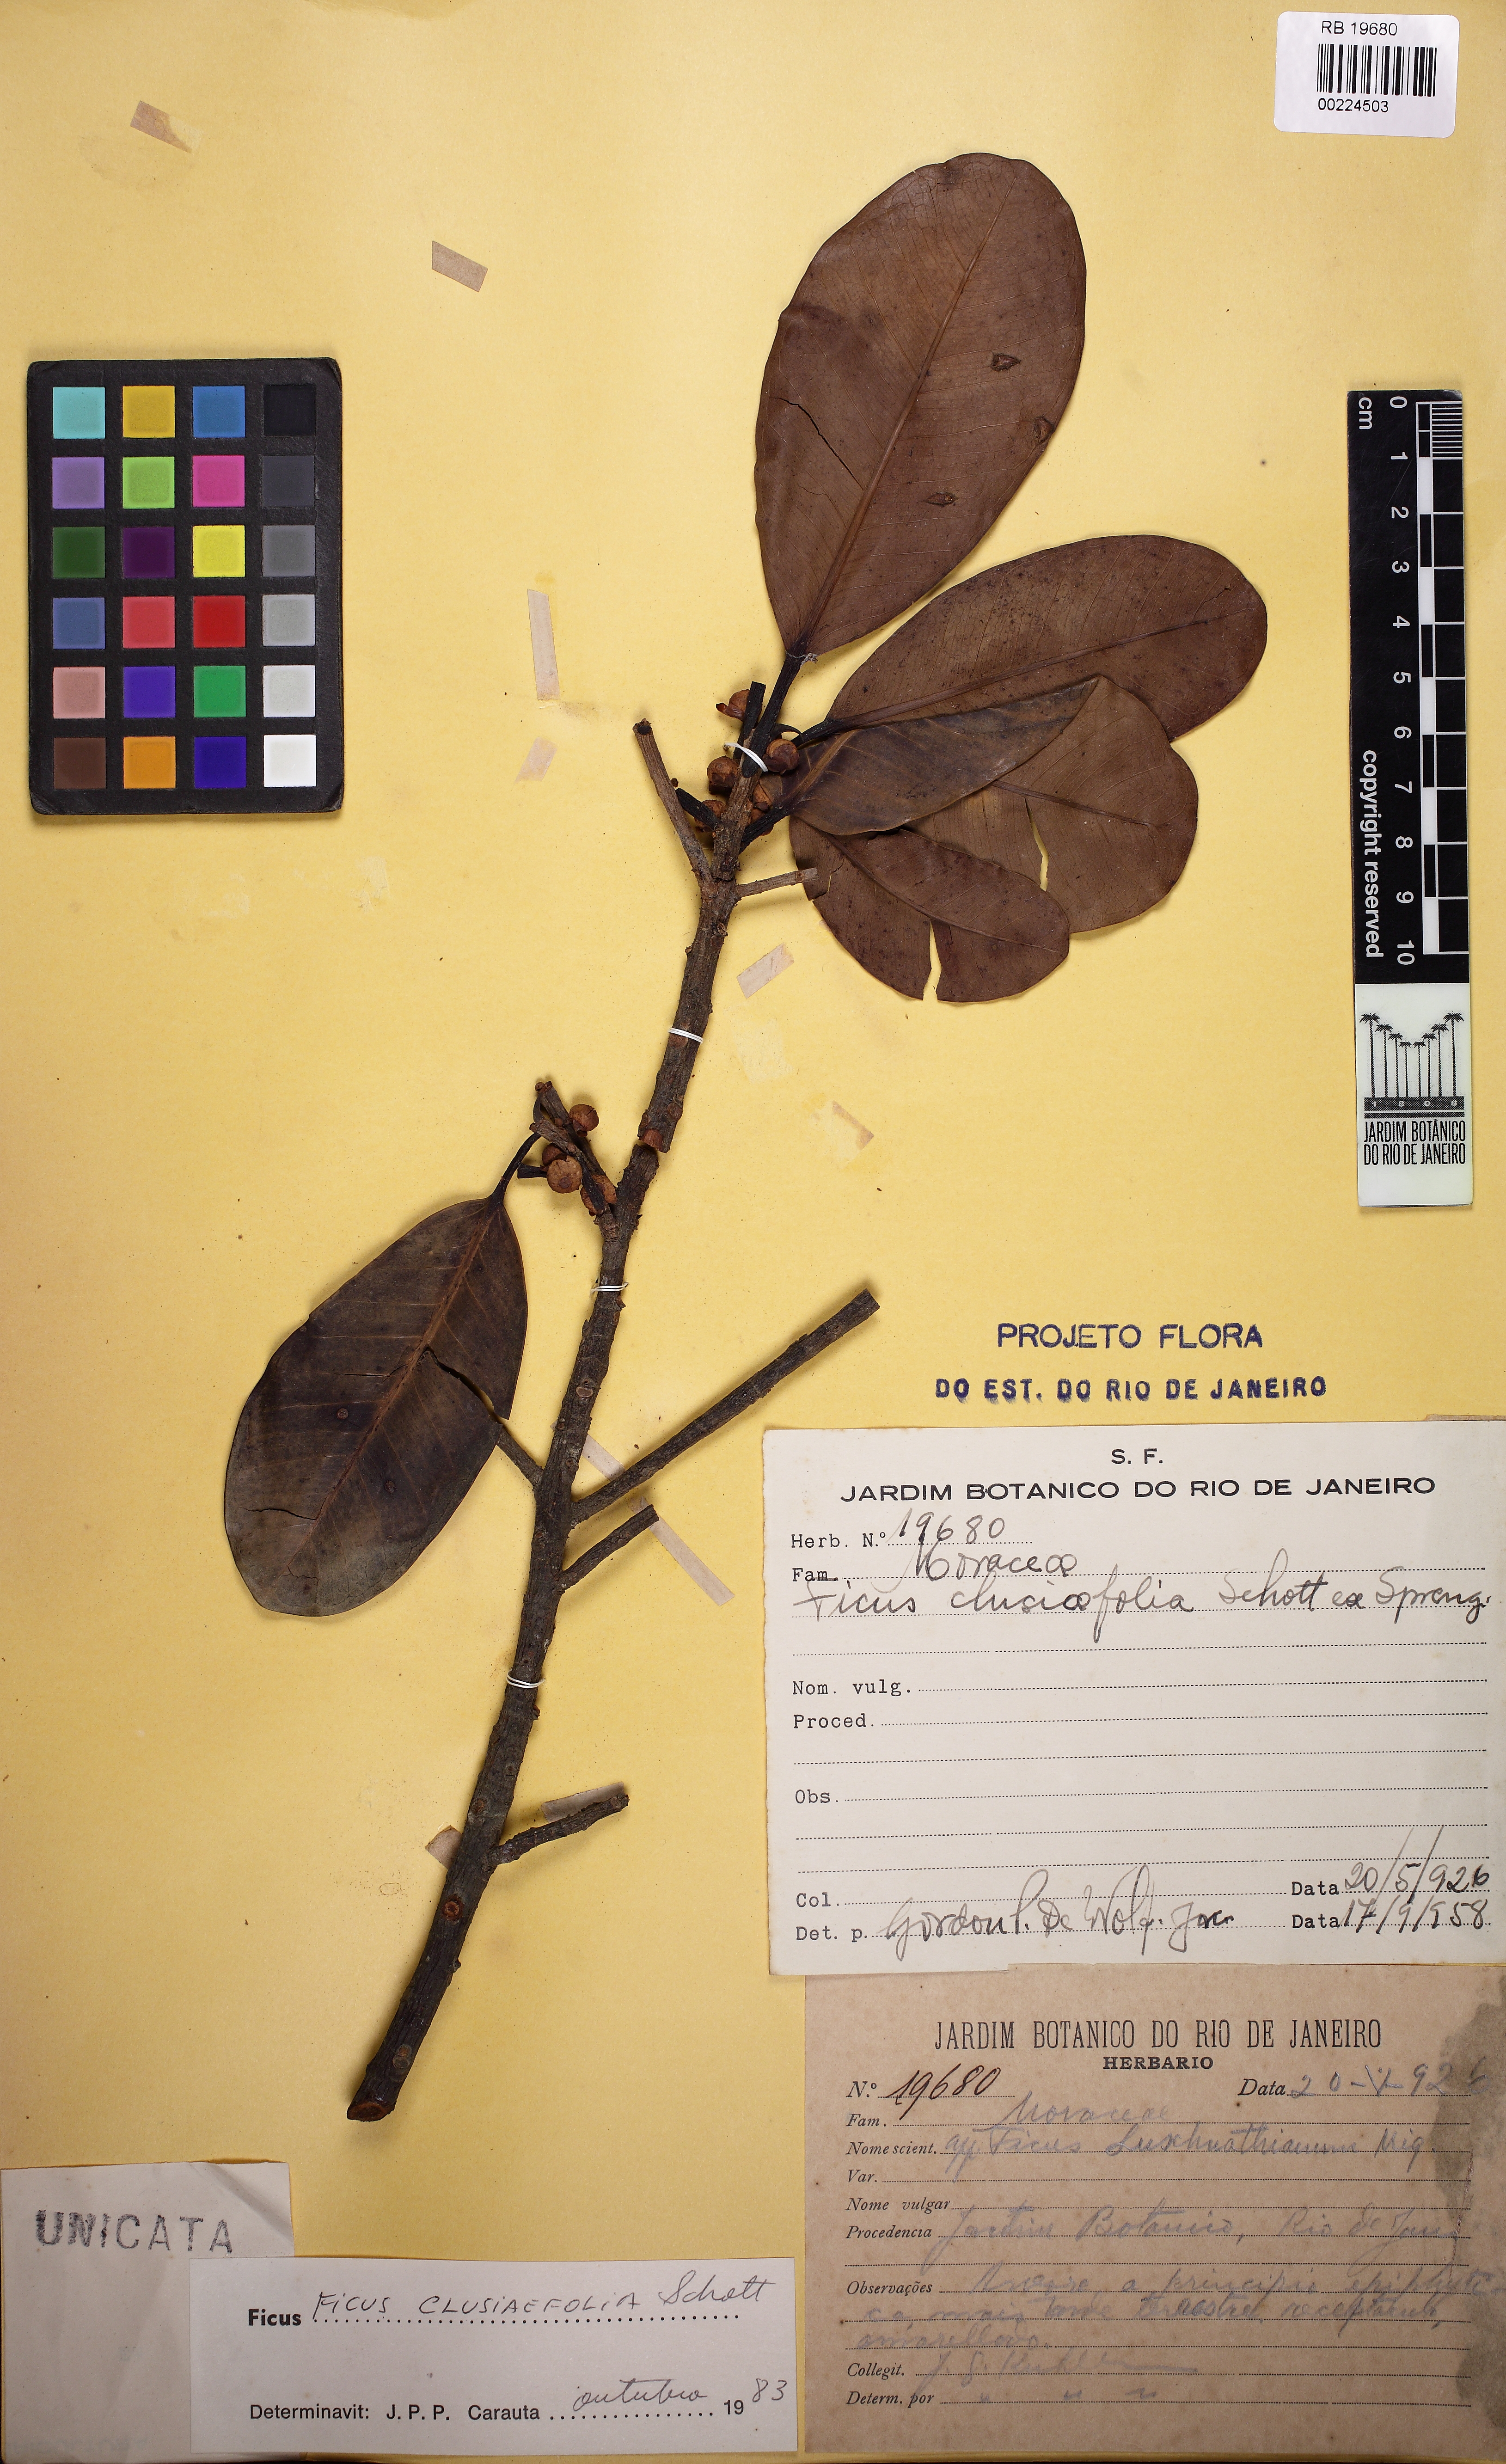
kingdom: Plantae
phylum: Tracheophyta
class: Magnoliopsida
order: Rosales
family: Moraceae
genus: Ficus
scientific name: Ficus americana
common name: Jamaican cherry fig
